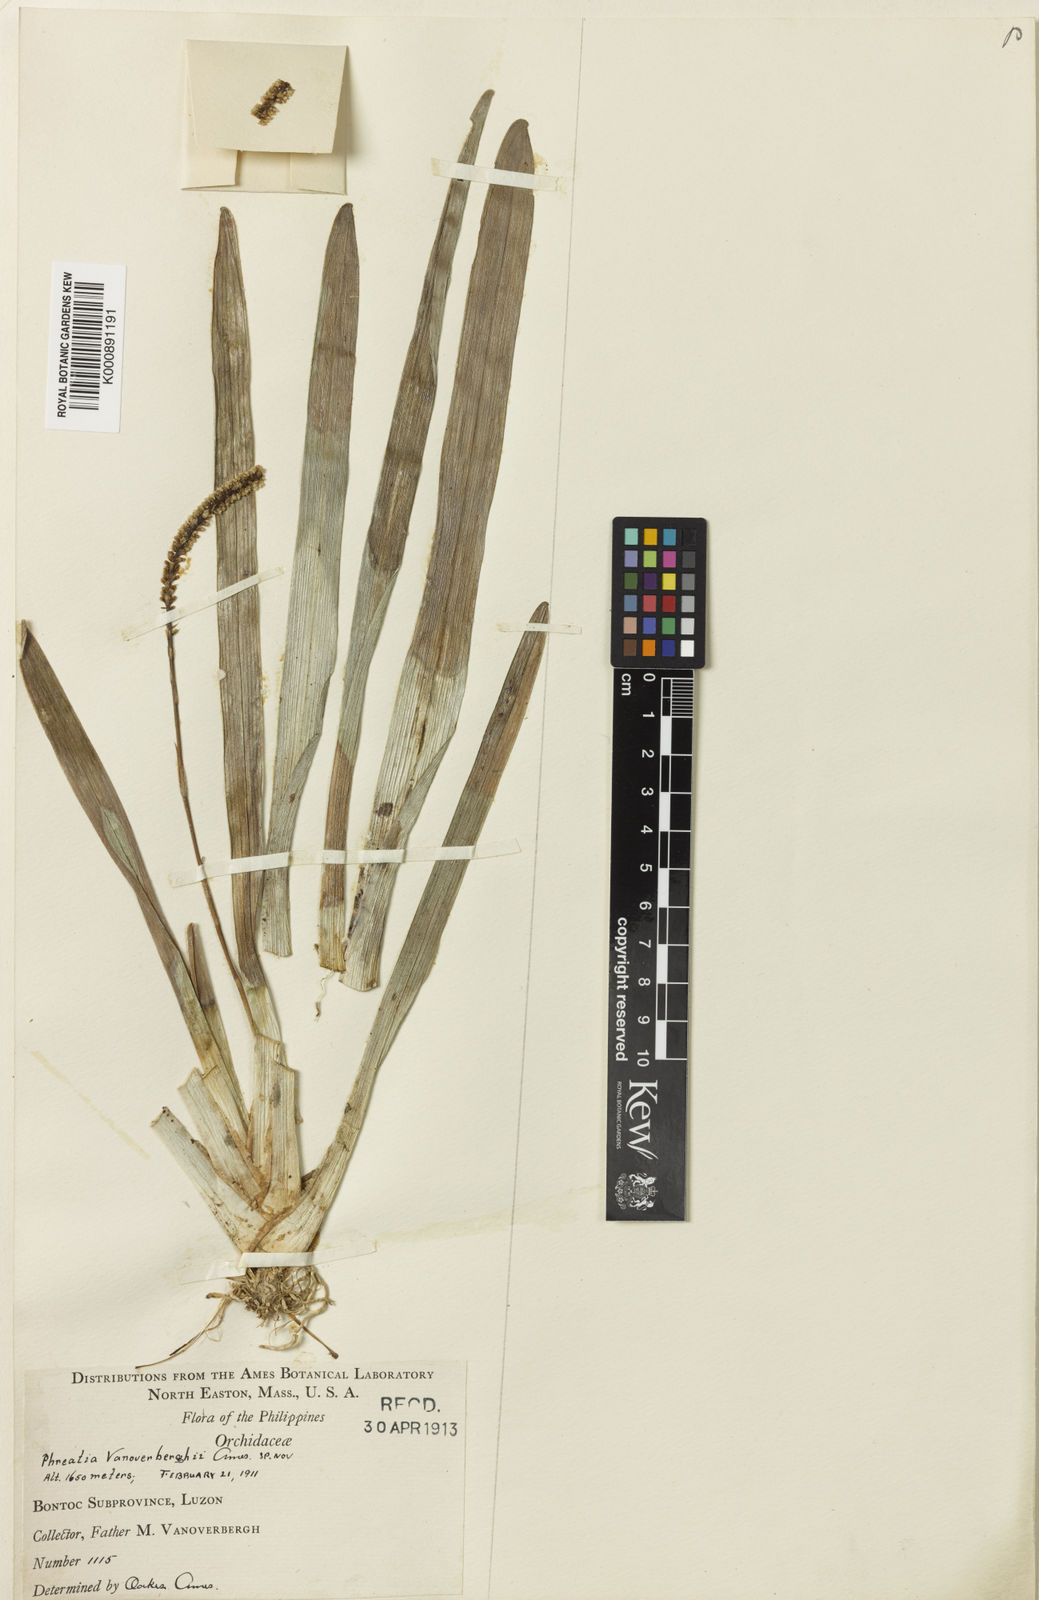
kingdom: Plantae
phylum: Tracheophyta
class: Liliopsida
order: Asparagales
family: Orchidaceae
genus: Phreatia
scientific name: Phreatia vanoverberghii
